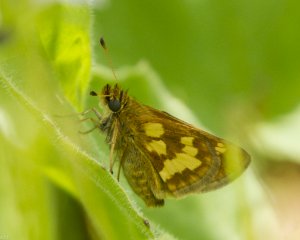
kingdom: Animalia
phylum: Arthropoda
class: Insecta
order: Lepidoptera
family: Hesperiidae
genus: Polites
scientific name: Polites coras
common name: Peck's Skipper
